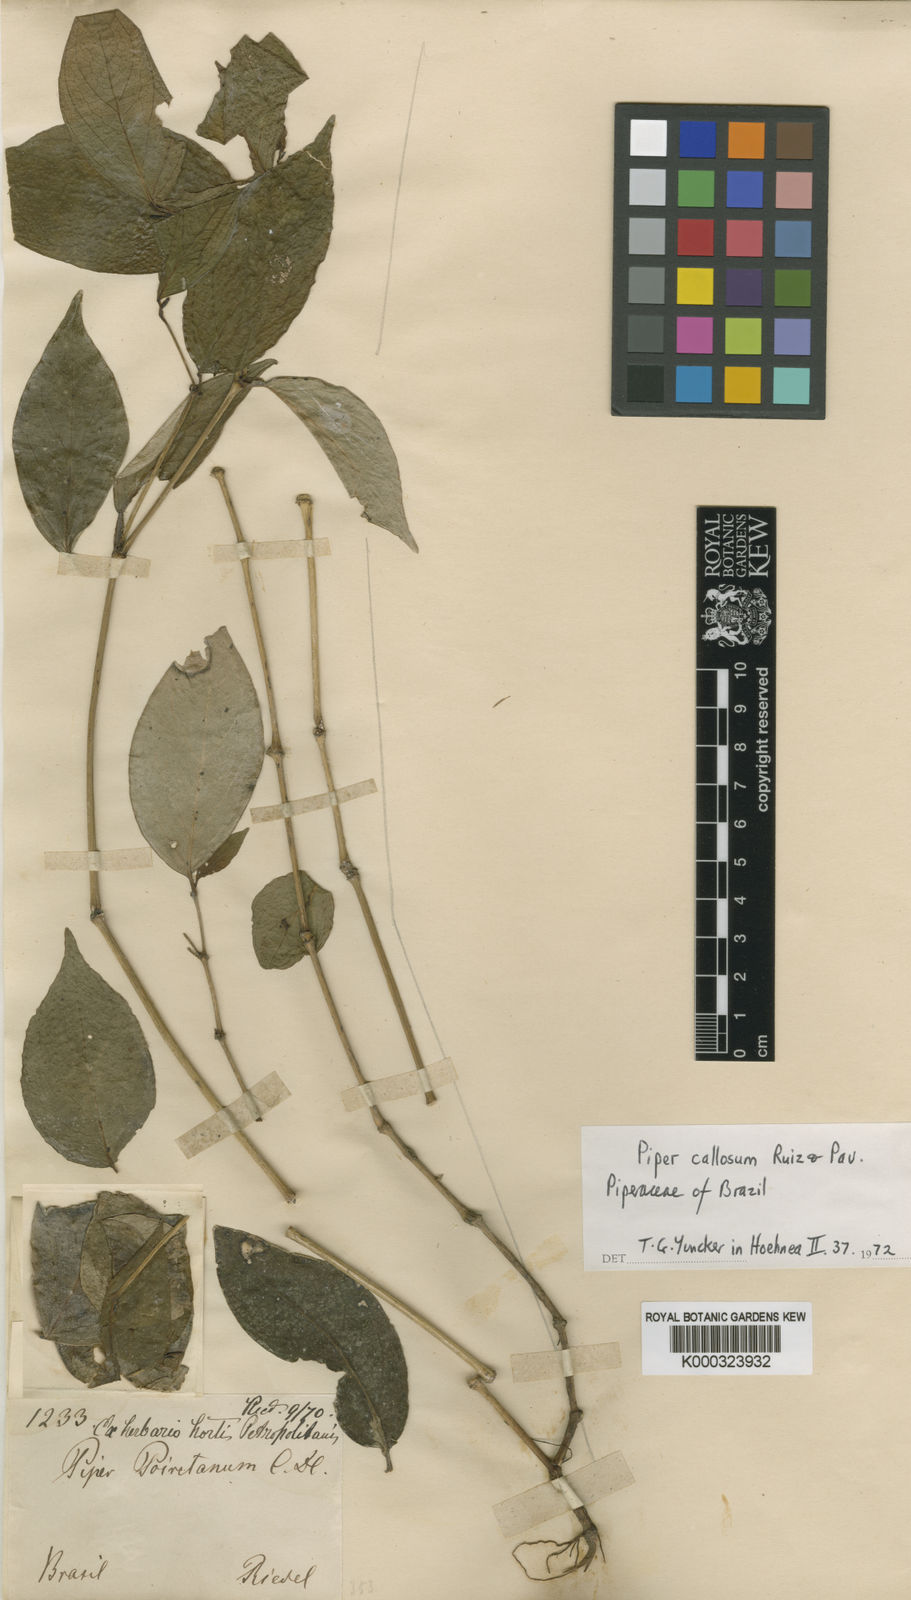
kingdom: Plantae
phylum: Tracheophyta
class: Magnoliopsida
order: Piperales
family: Piperaceae
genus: Piper
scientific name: Piper callosum
